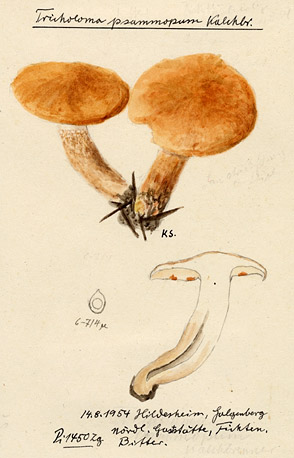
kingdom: Fungi
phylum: Basidiomycota
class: Agaricomycetes
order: Agaricales
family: Tricholomataceae
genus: Tricholoma
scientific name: Tricholoma psammopus
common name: Larch knight
